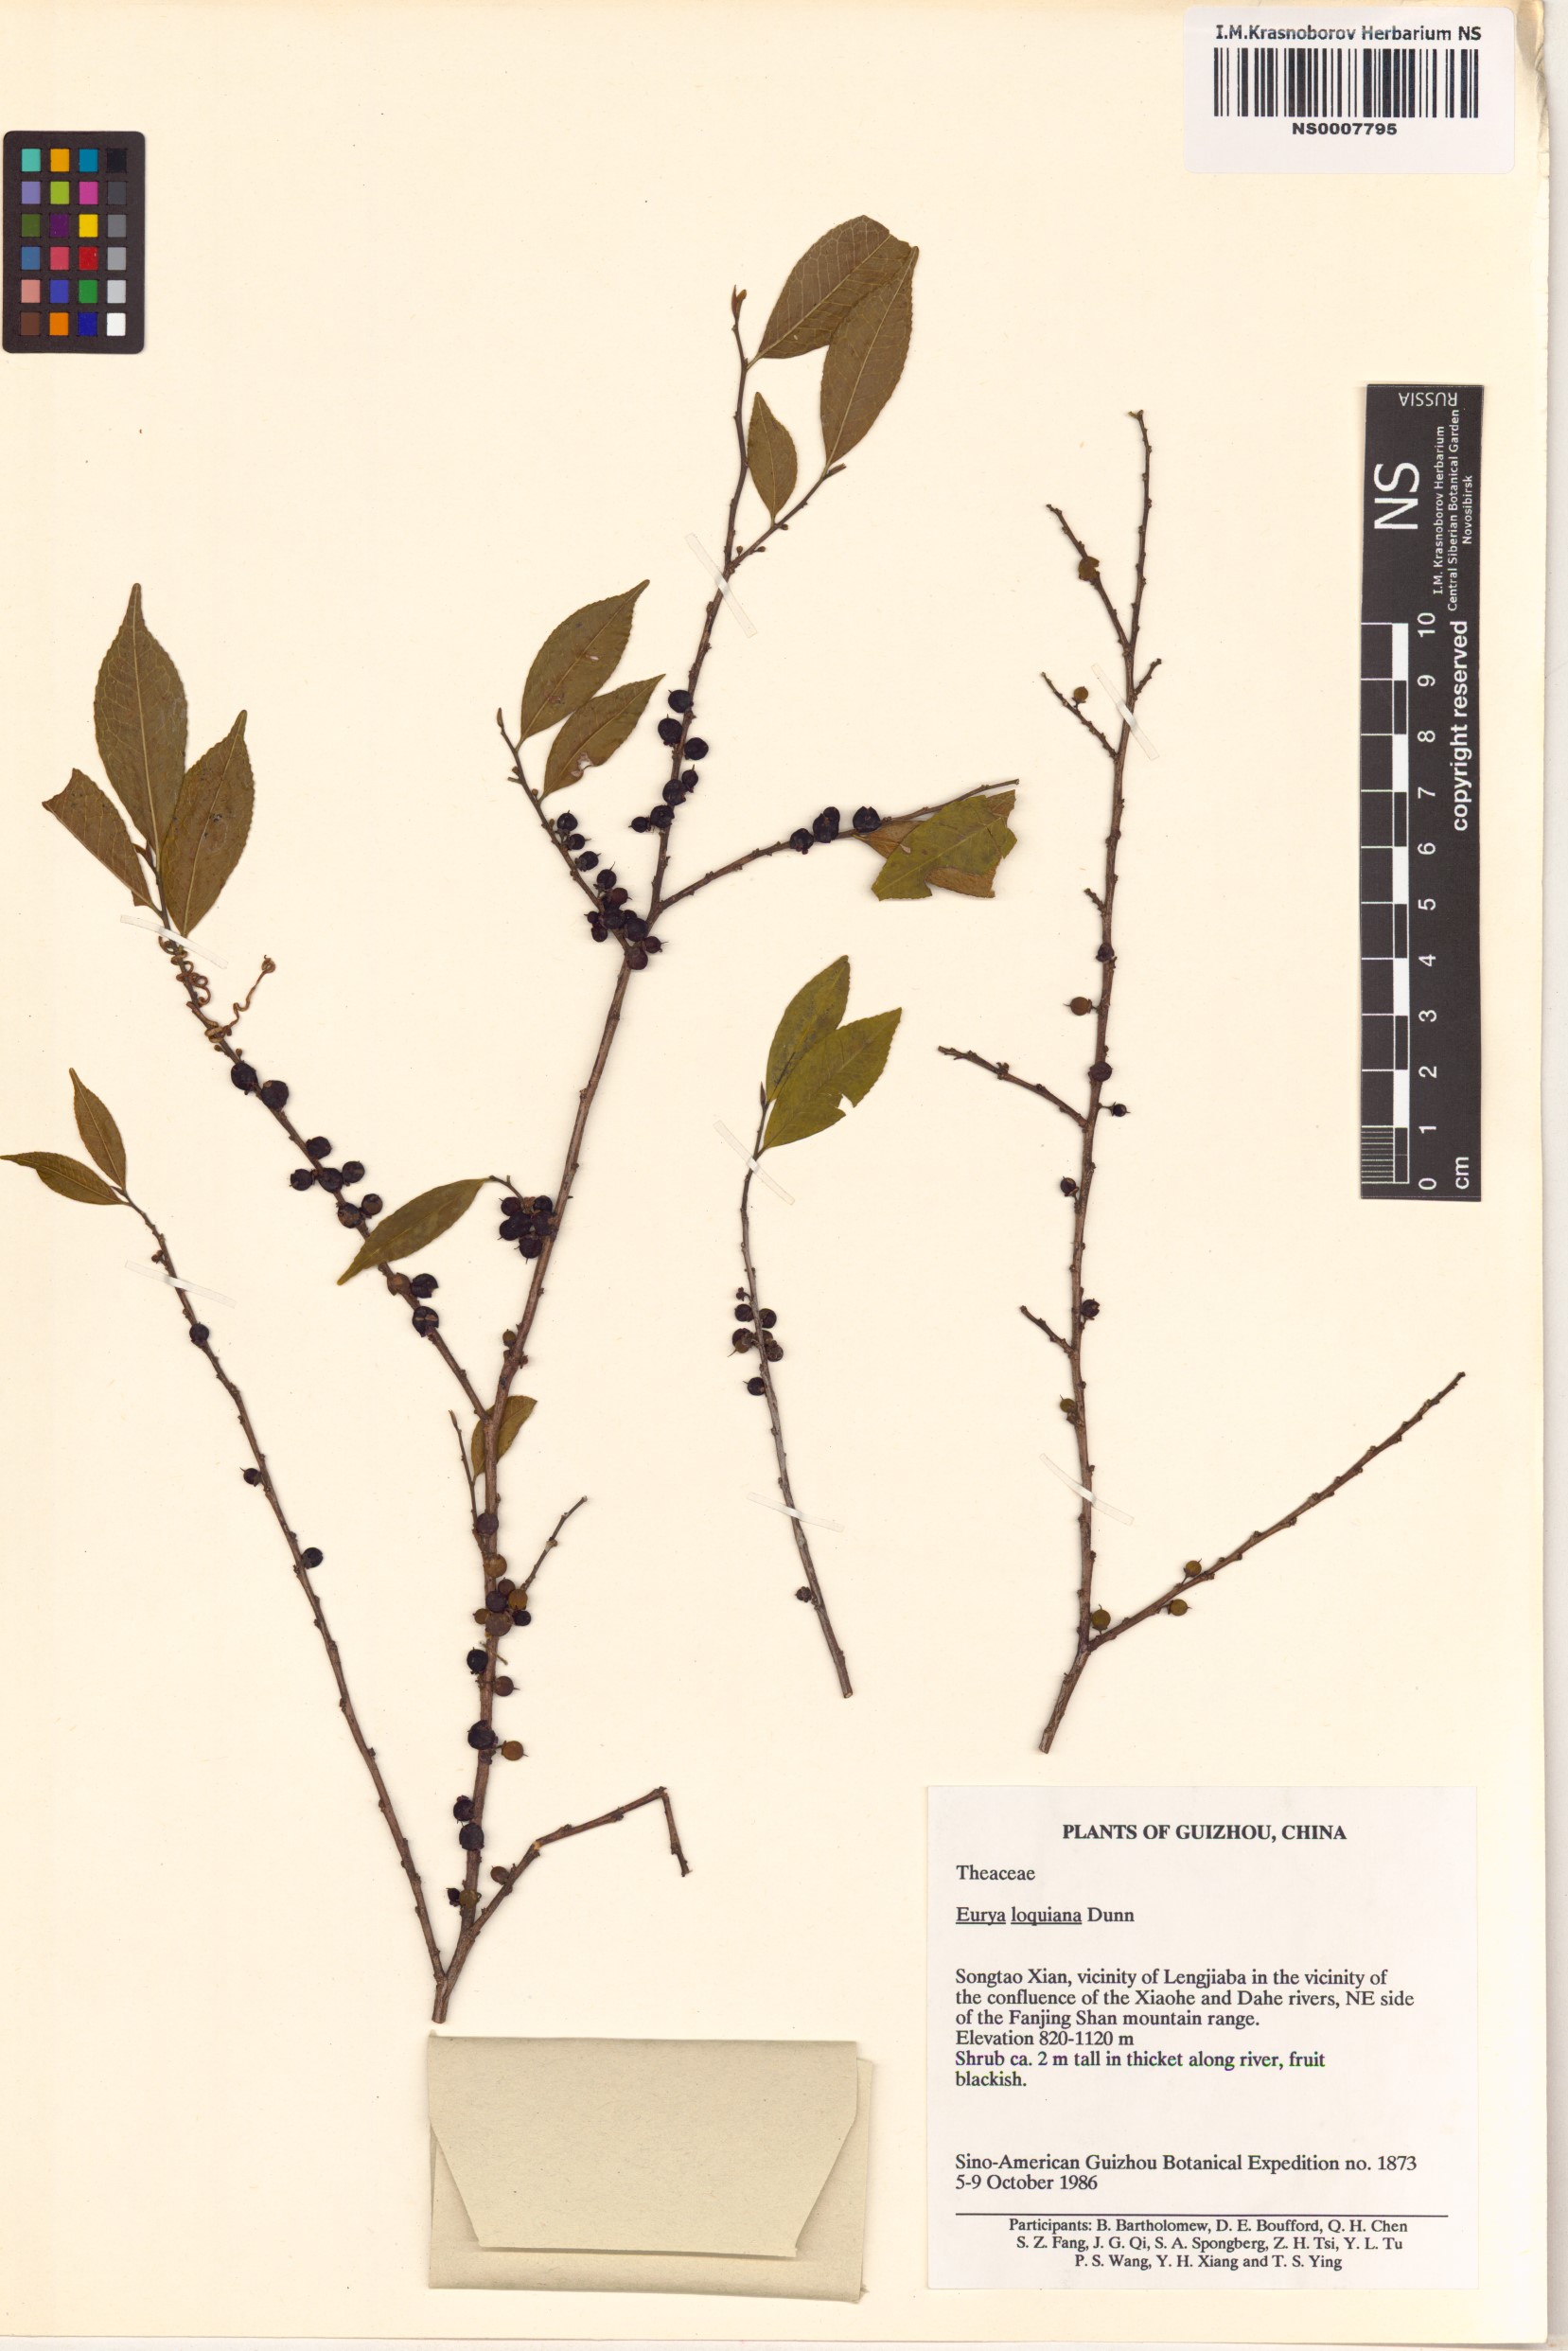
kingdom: Plantae
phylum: Tracheophyta
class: Magnoliopsida
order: Ericales
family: Pentaphylacaceae
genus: Eurya
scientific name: Eurya loquaiana
